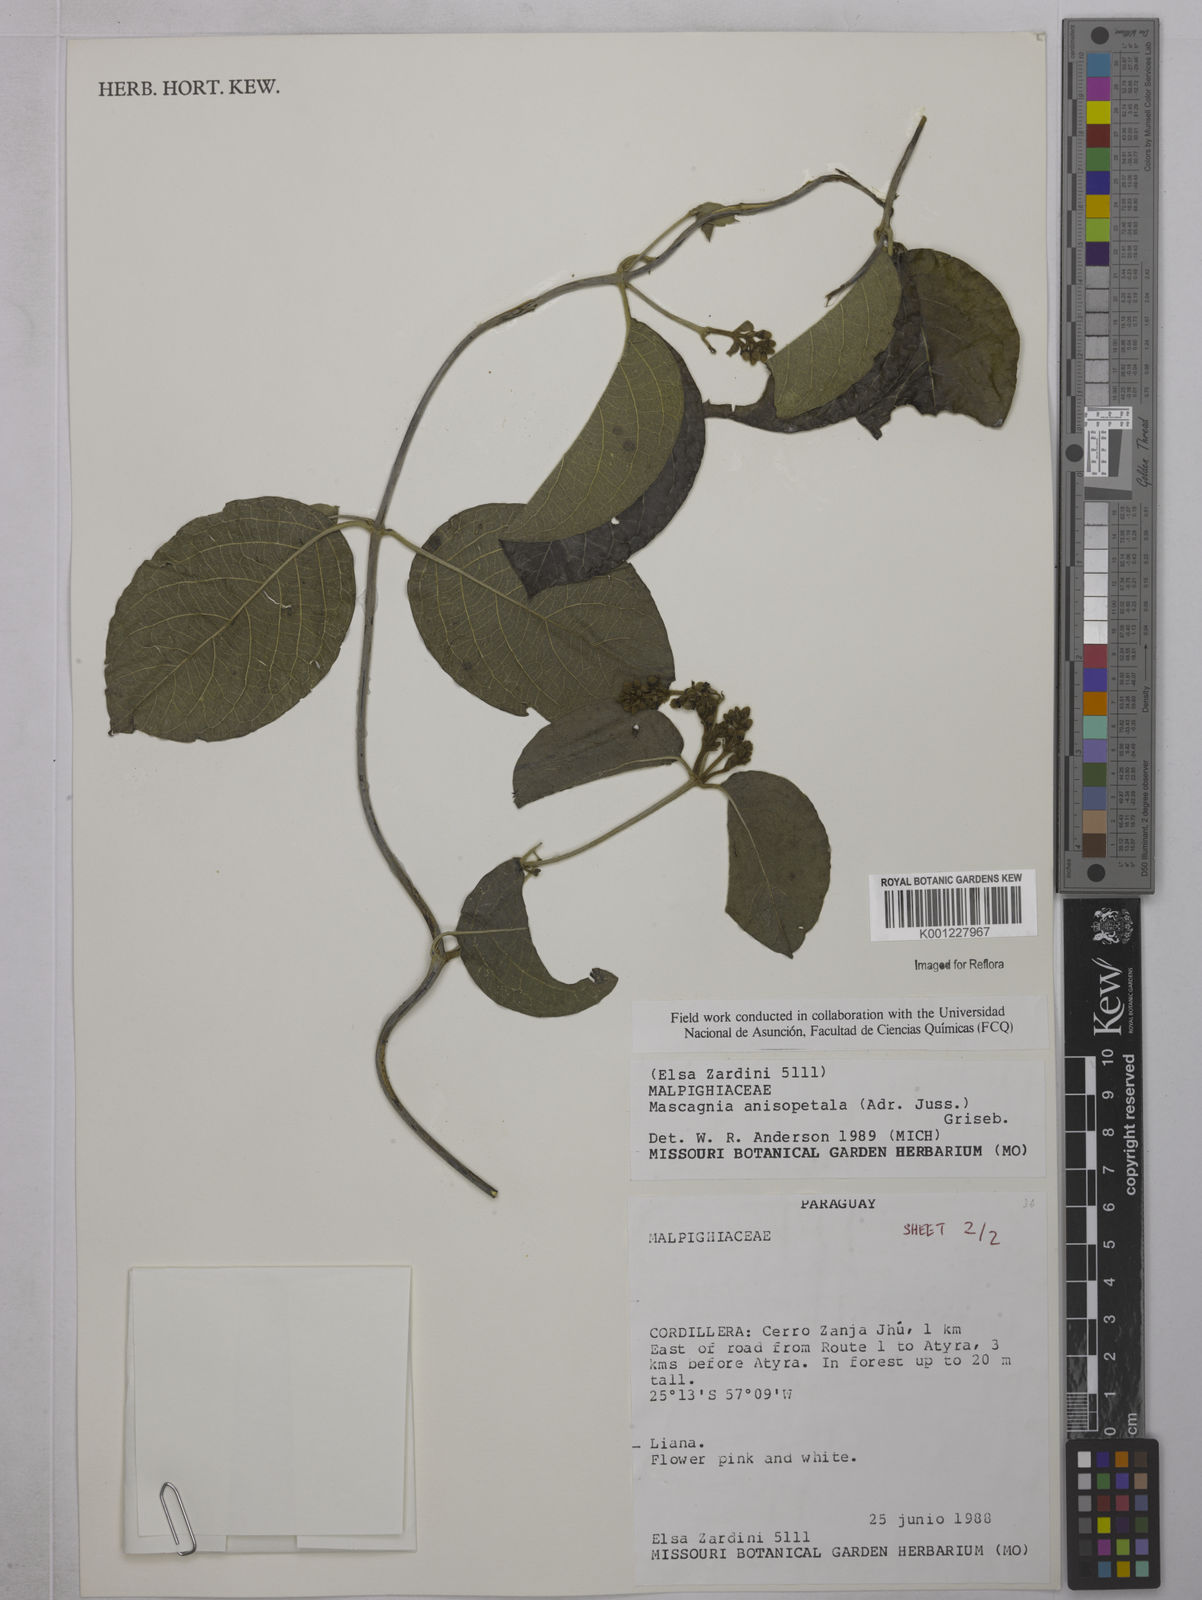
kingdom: Plantae
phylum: Tracheophyta
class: Magnoliopsida
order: Malpighiales
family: Malpighiaceae
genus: Alicia
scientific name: Alicia anisopetala
